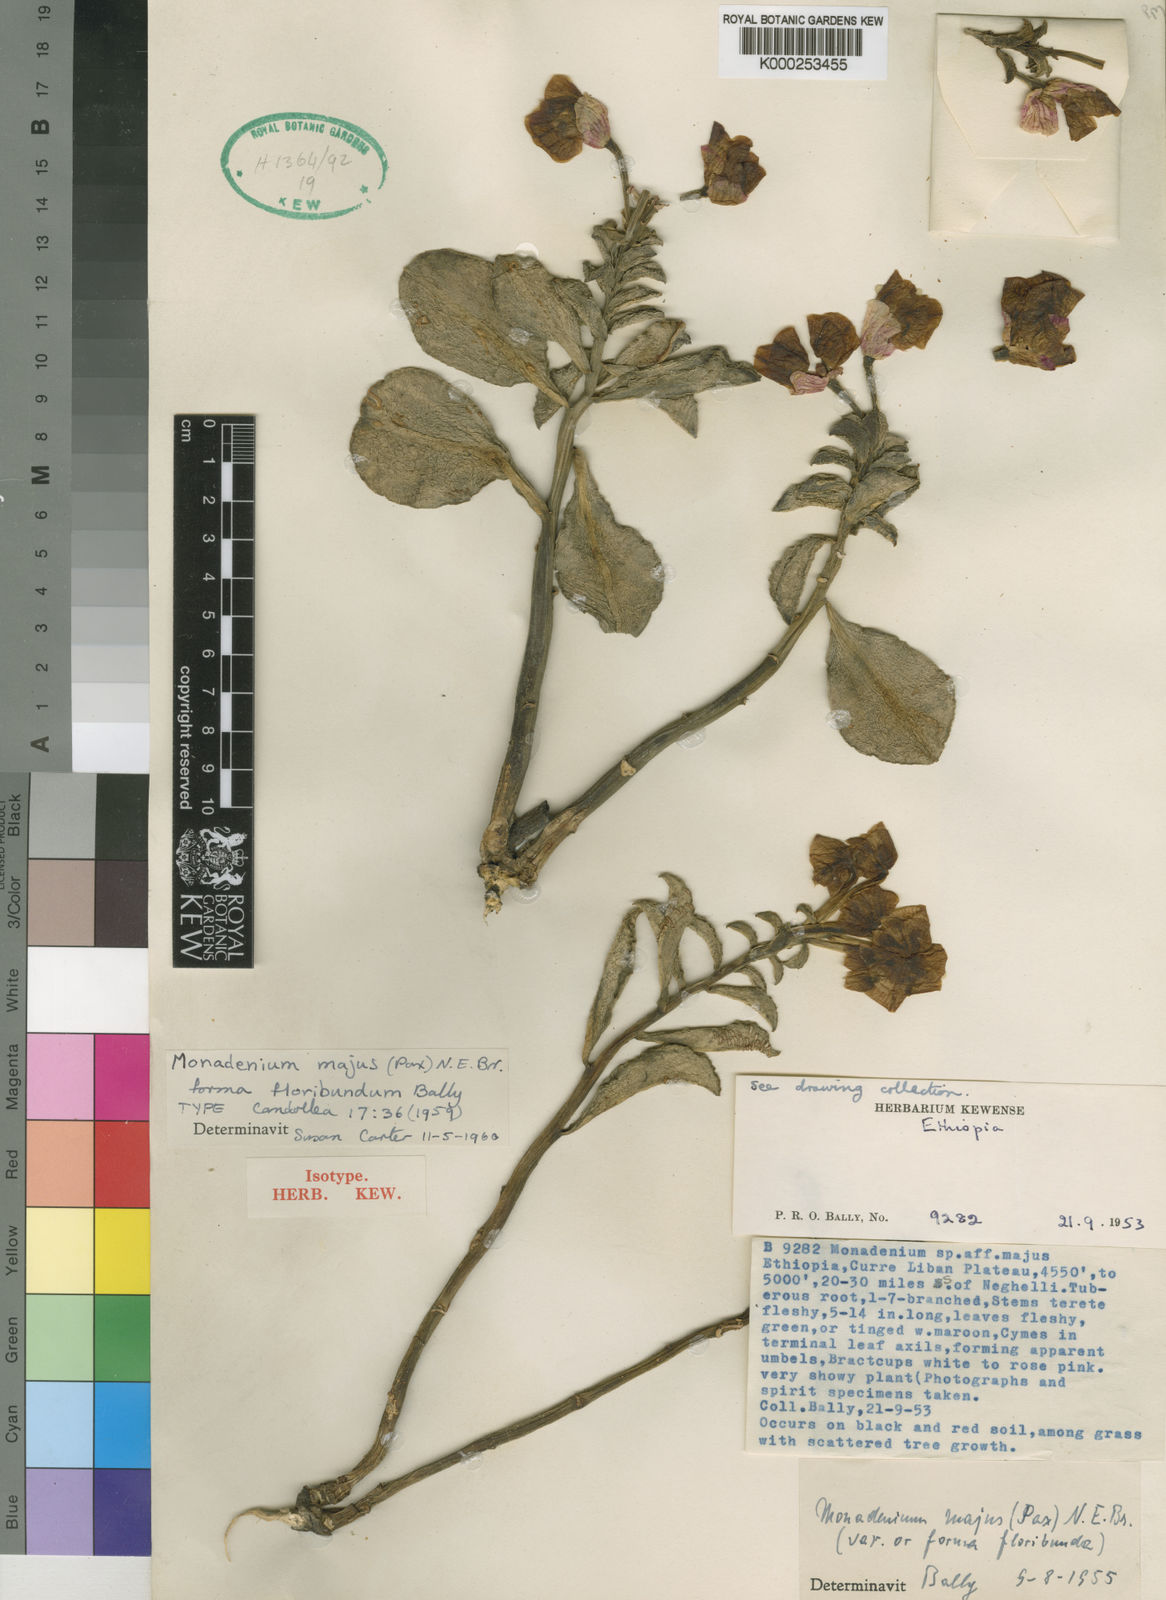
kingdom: Plantae
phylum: Tracheophyta
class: Magnoliopsida
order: Malpighiales
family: Euphorbiaceae
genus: Euphorbia
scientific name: Euphorbia major
